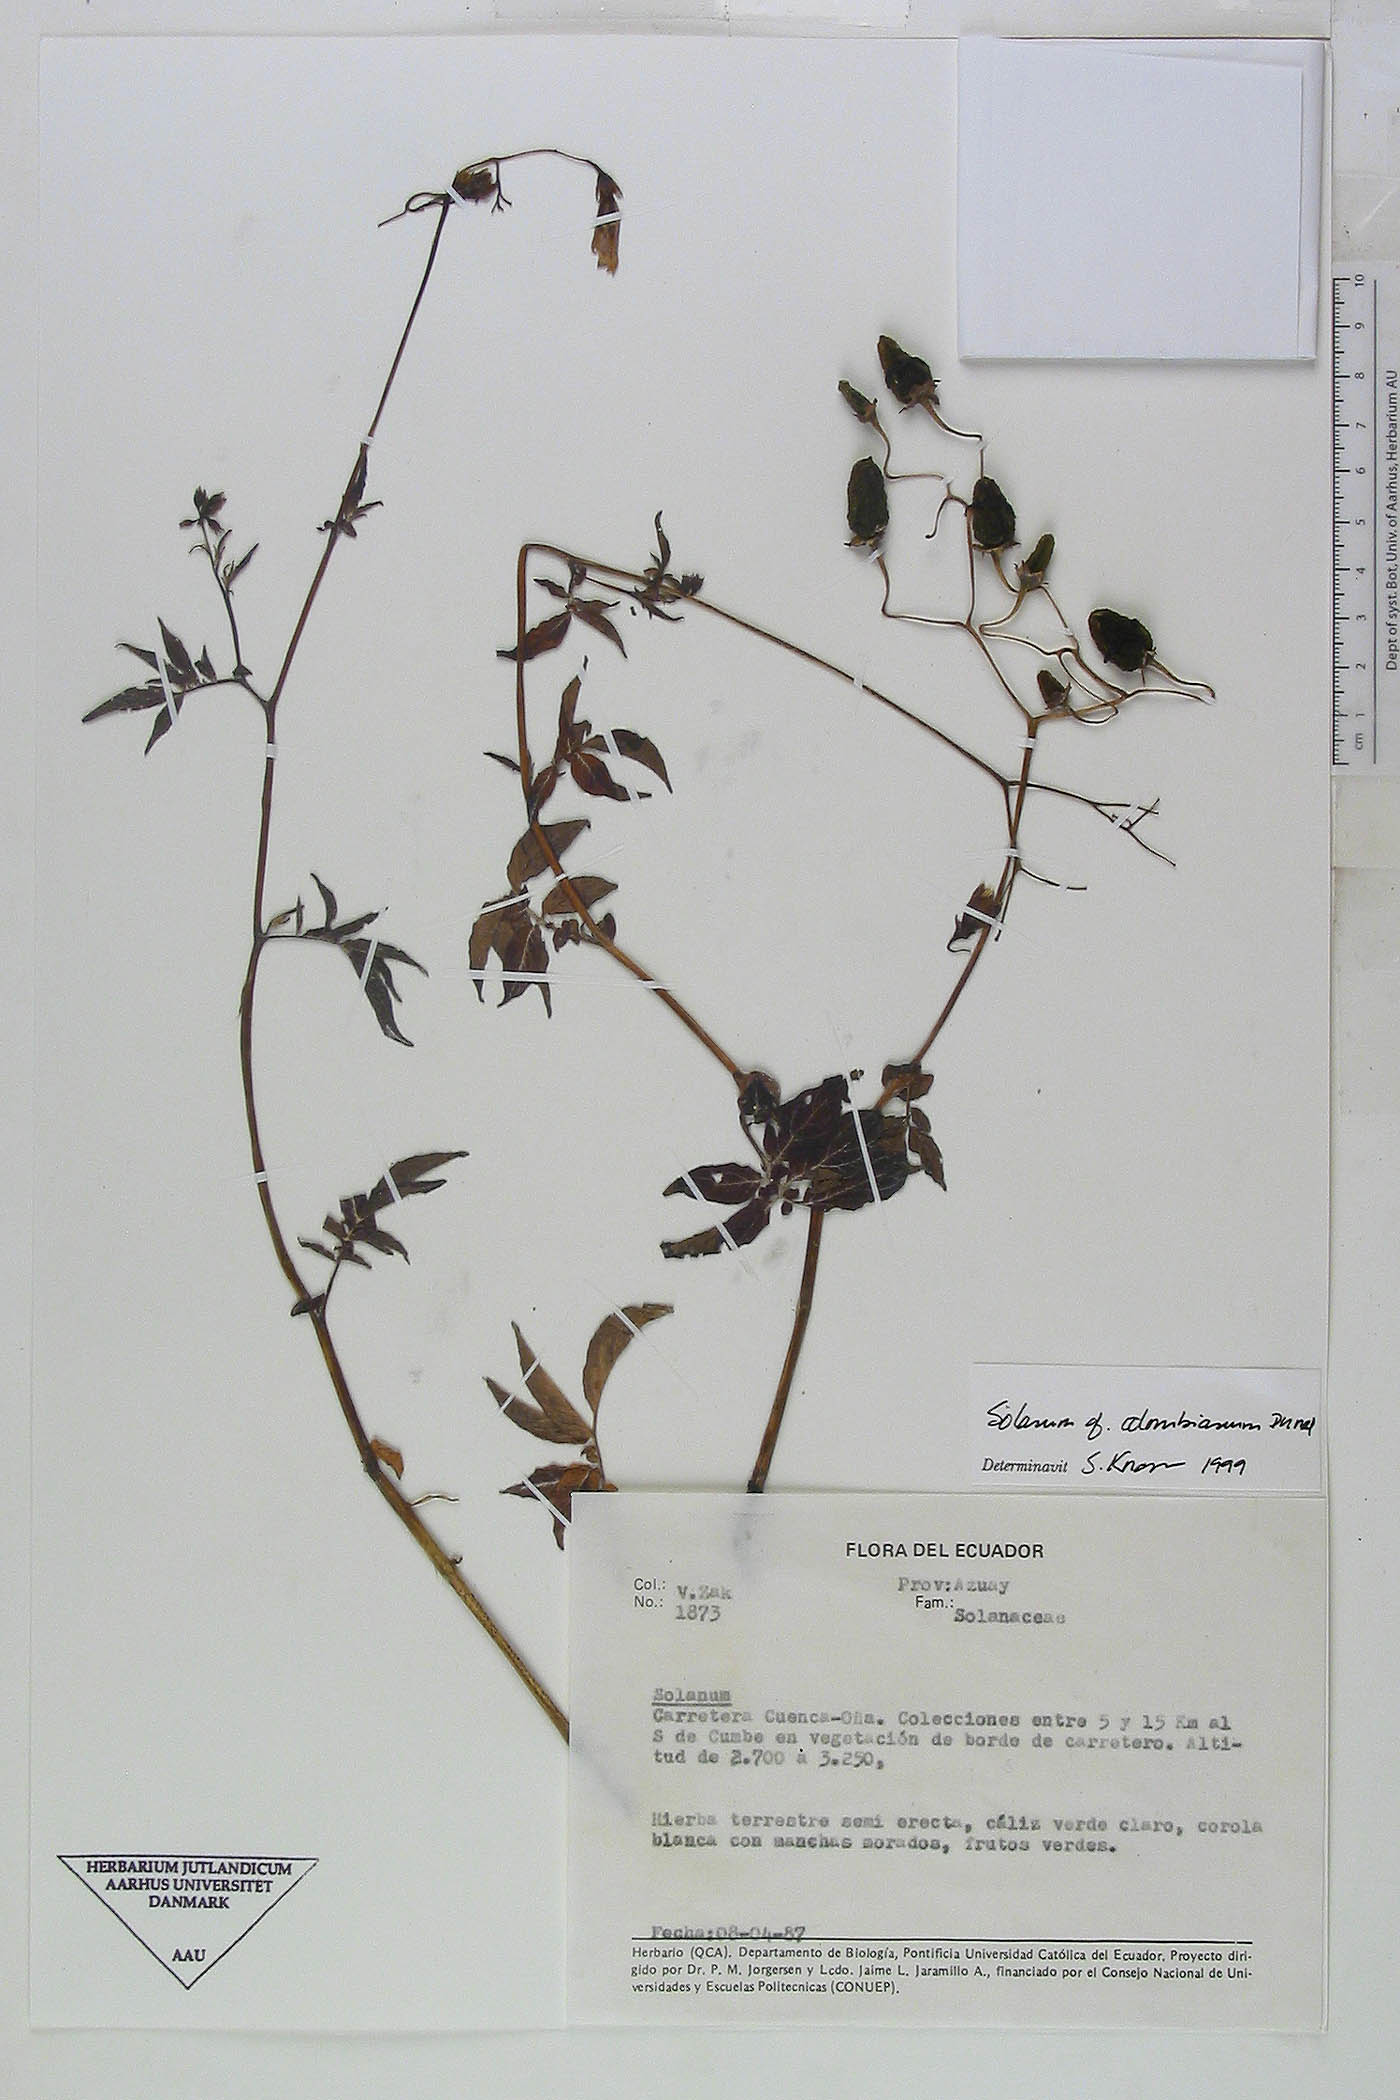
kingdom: Plantae
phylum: Tracheophyta
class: Magnoliopsida
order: Solanales
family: Solanaceae
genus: Solanum
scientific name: Solanum colombianum
